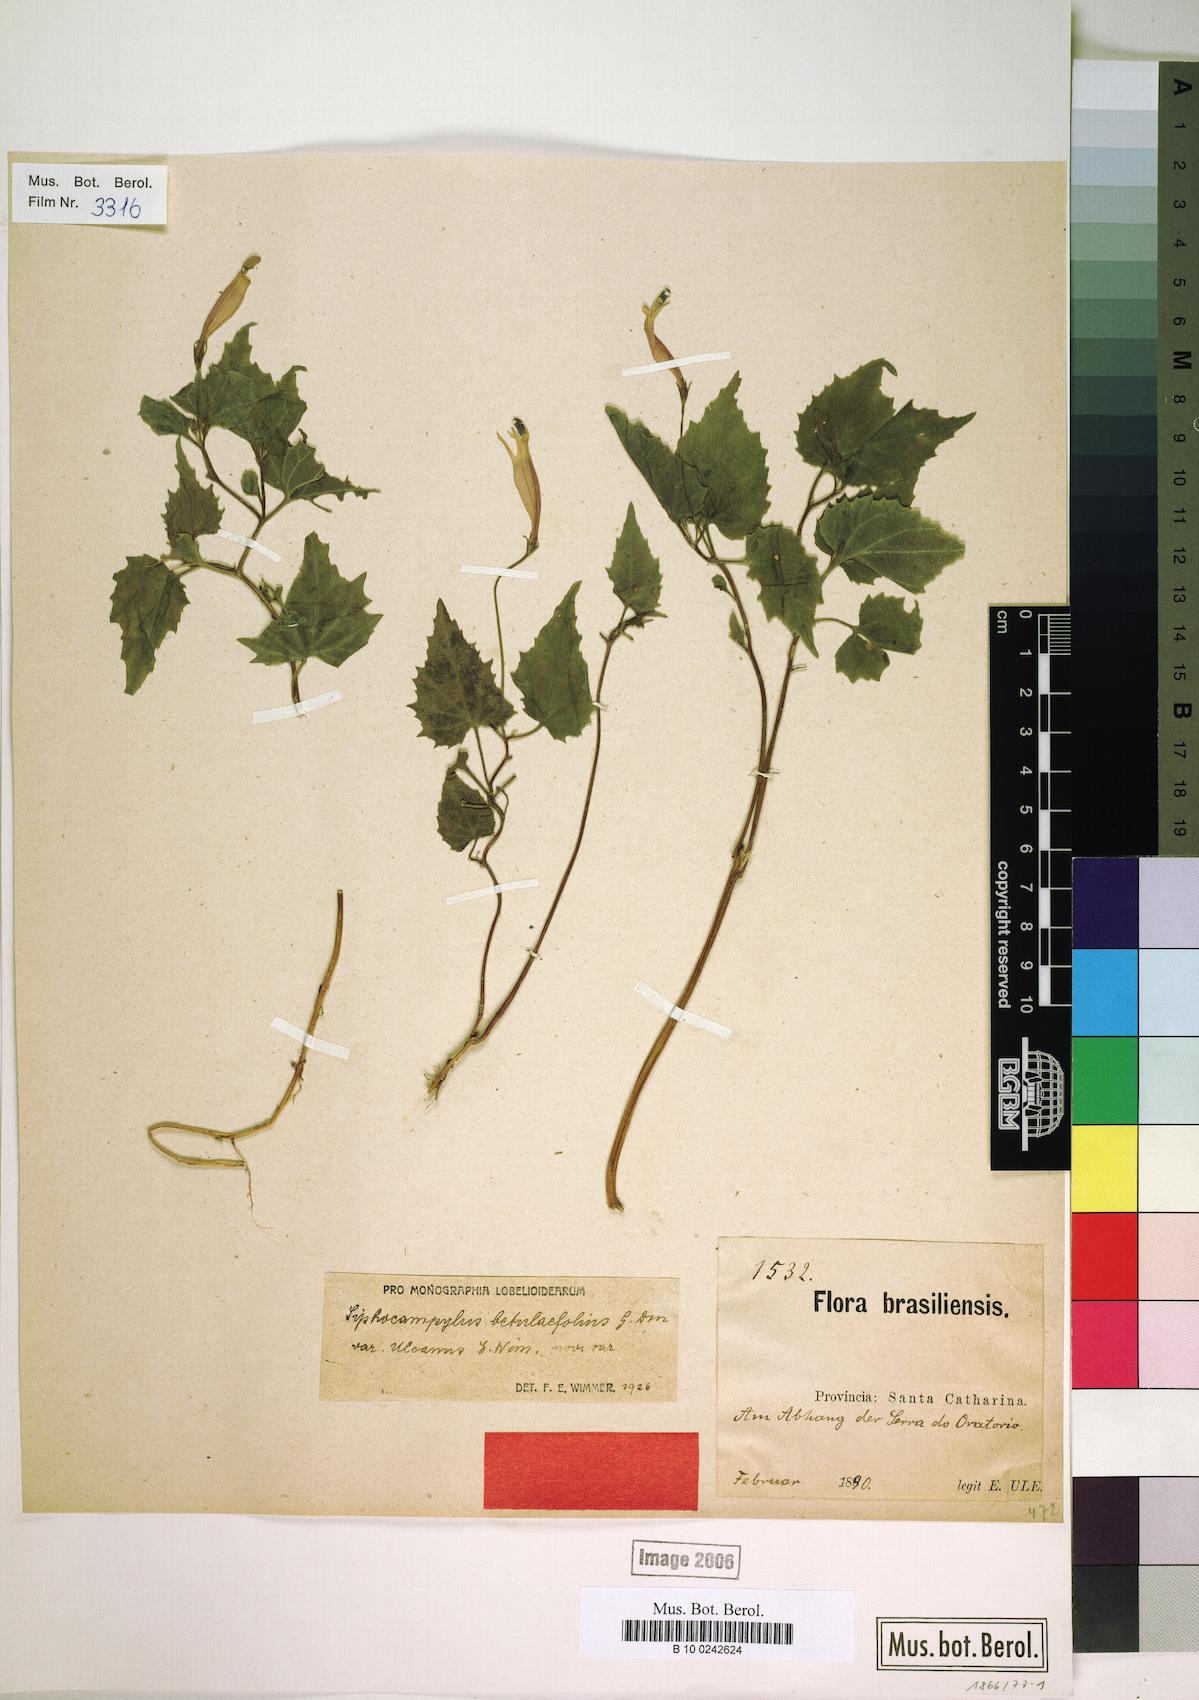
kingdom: Plantae
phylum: Tracheophyta
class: Magnoliopsida
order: Asterales
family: Campanulaceae
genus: Siphocampylus
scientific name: Siphocampylus betulifolius
